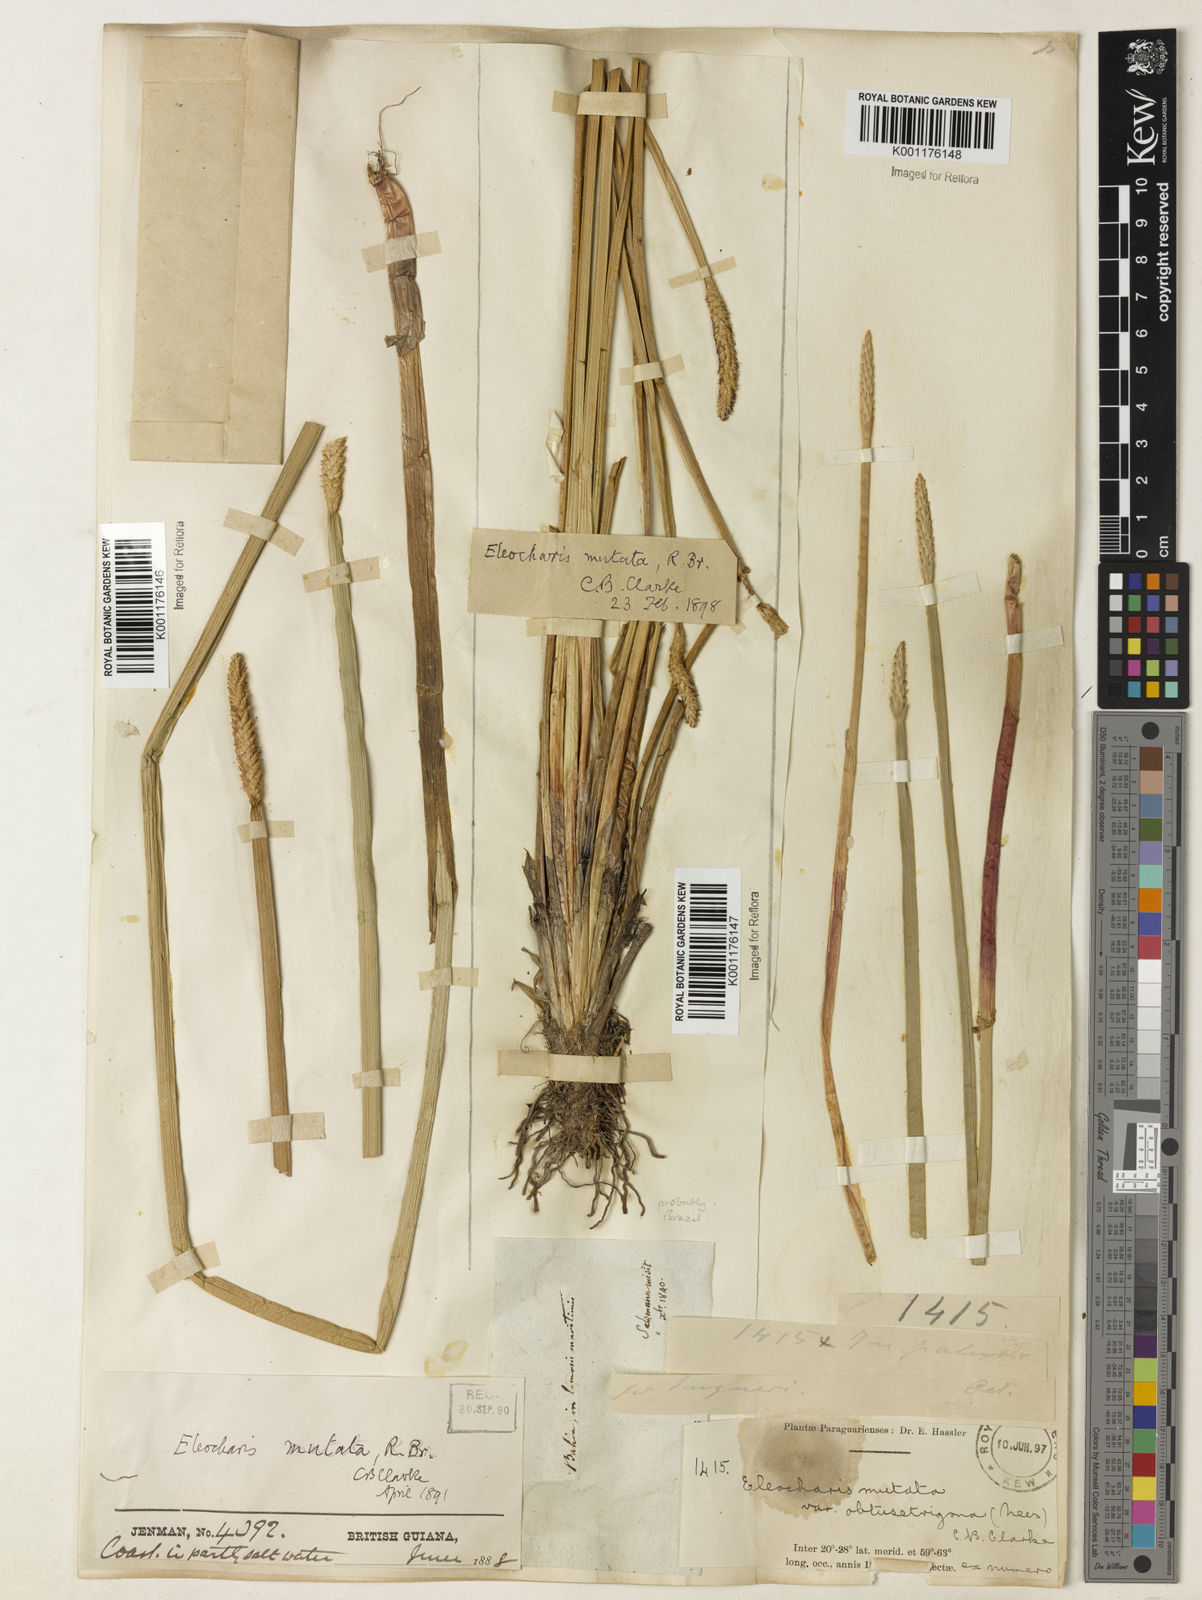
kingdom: Plantae
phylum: Tracheophyta
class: Liliopsida
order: Poales
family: Cyperaceae
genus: Eleocharis
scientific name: Eleocharis acutangula
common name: Acute spikerush
